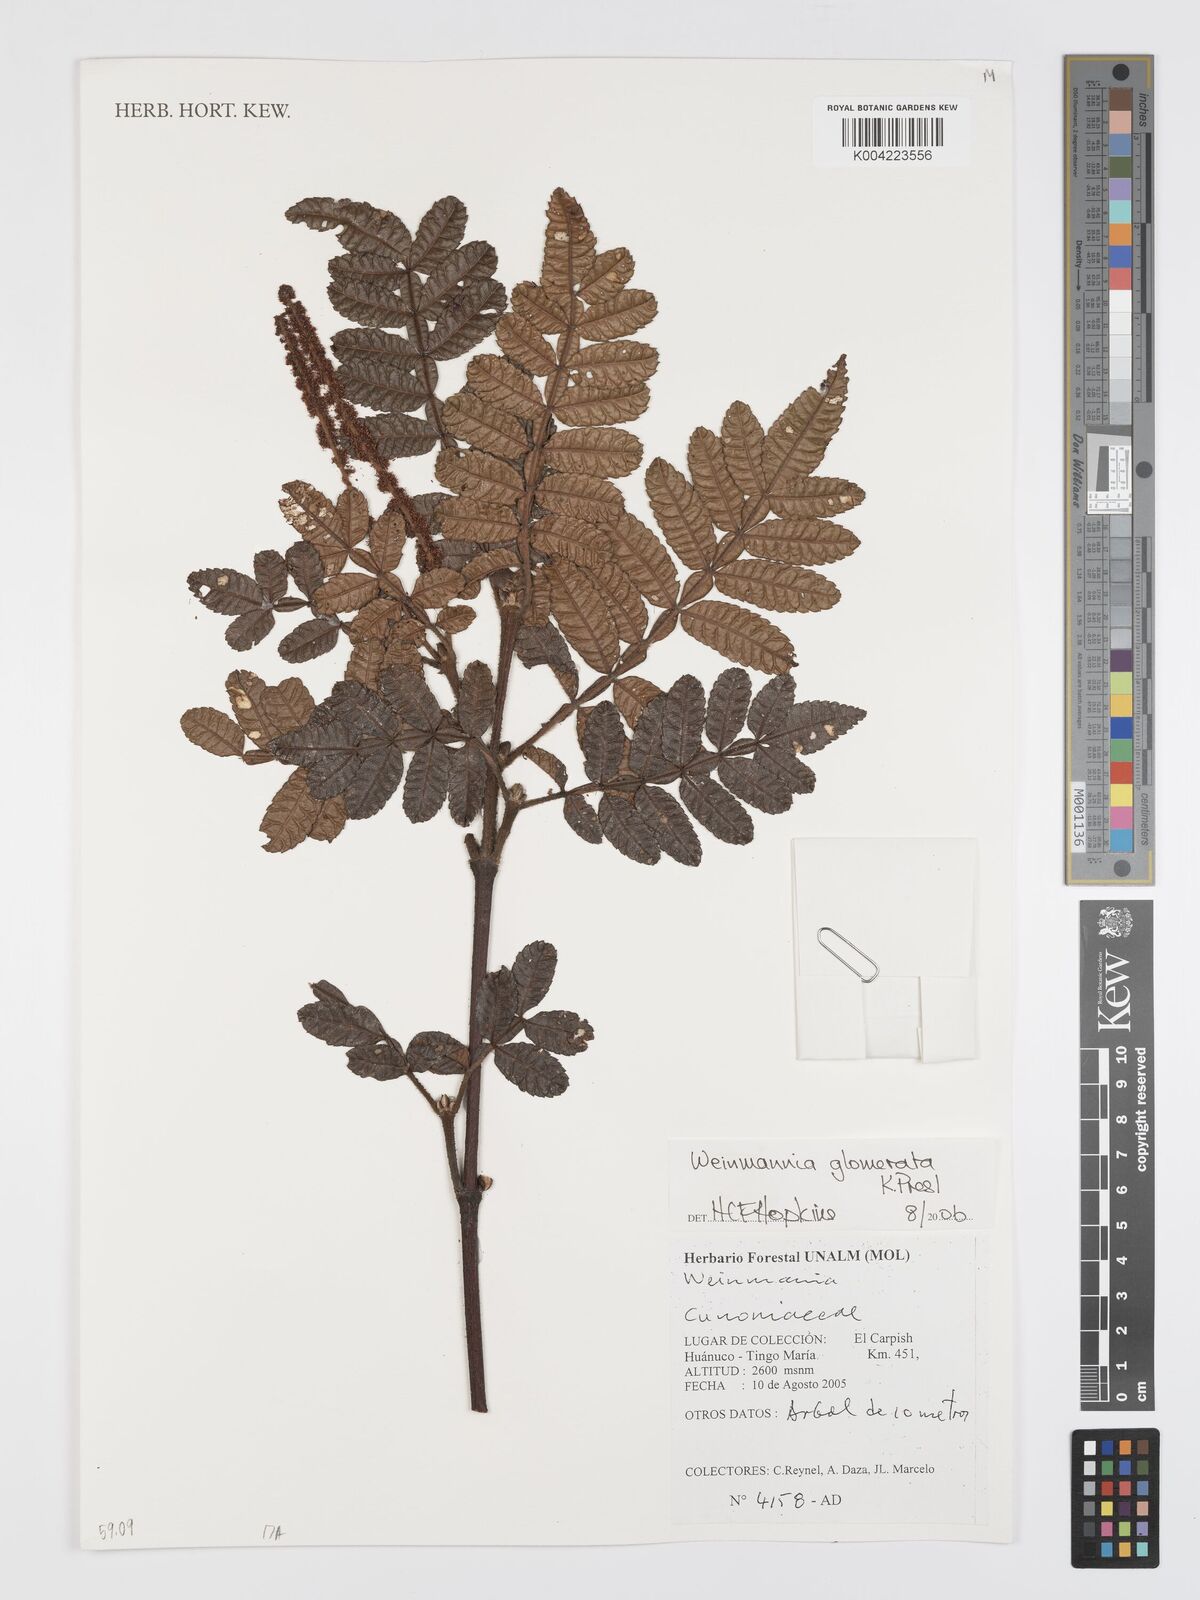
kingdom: Plantae
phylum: Tracheophyta
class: Magnoliopsida
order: Oxalidales
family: Cunoniaceae
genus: Weinmannia
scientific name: Weinmannia glomerata
